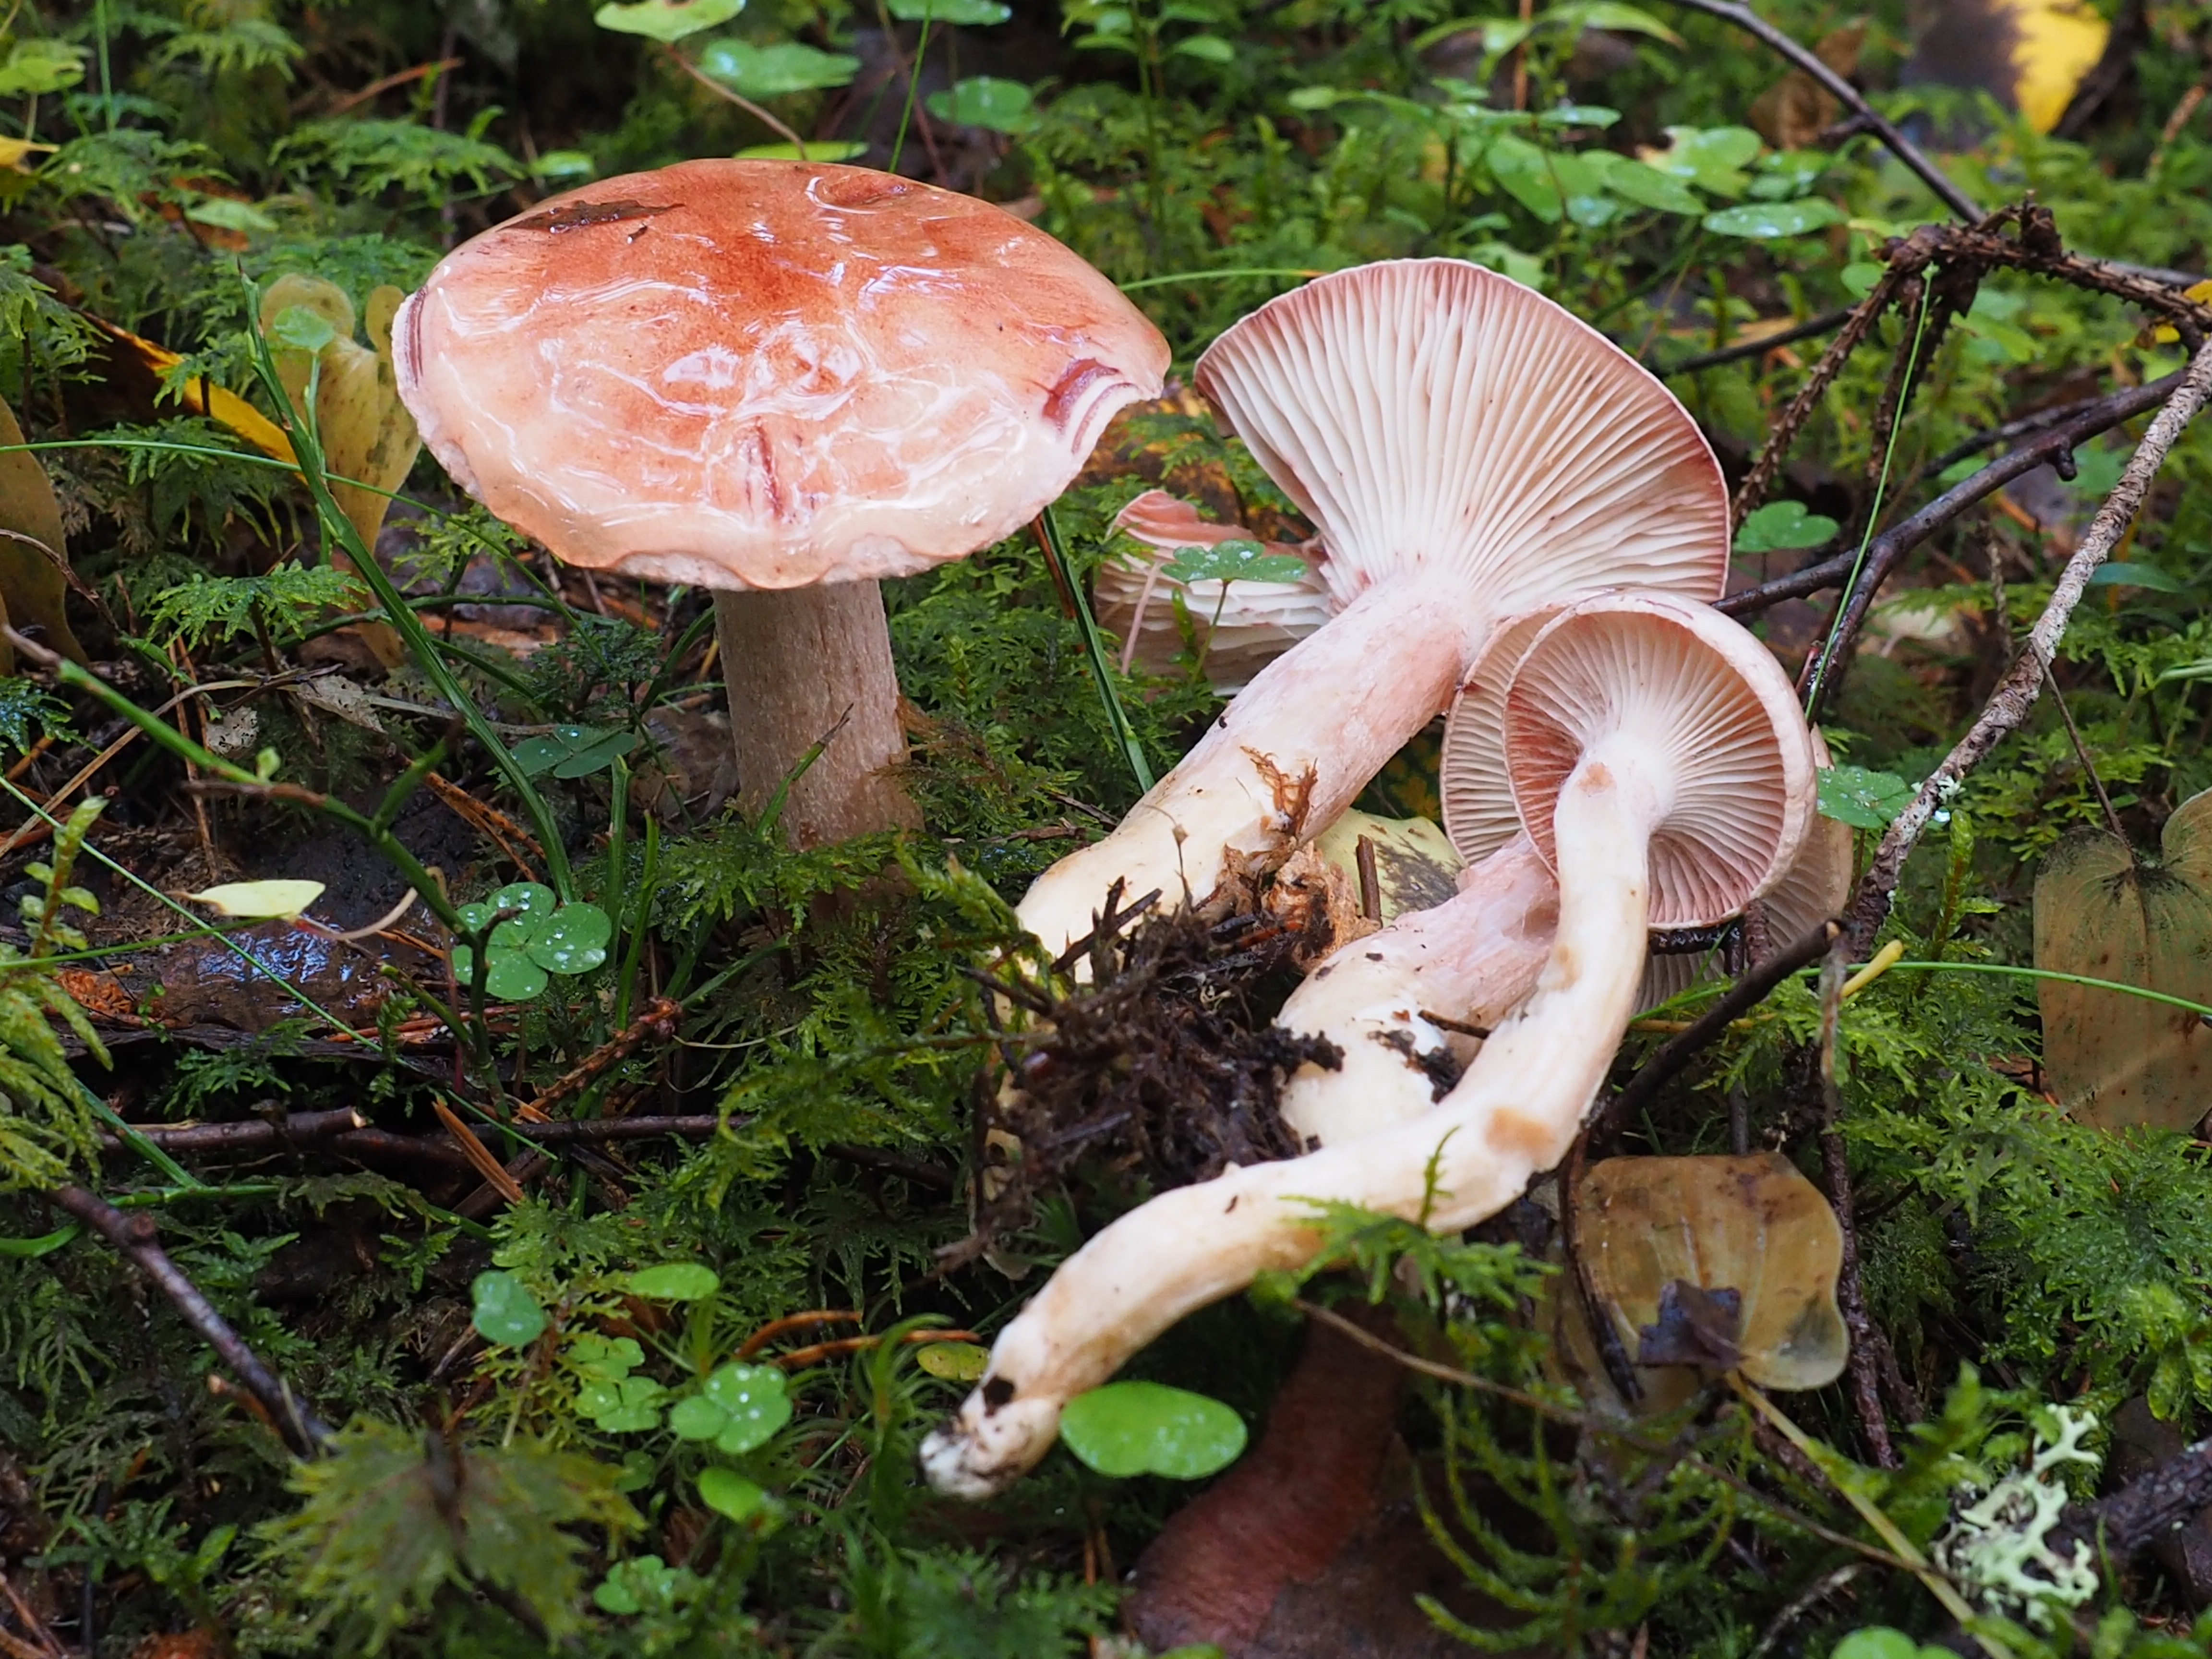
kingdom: Fungi
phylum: Basidiomycota
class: Agaricomycetes
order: Agaricales
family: Hygrophoraceae
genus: Hygrophorus
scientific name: Hygrophorus erubescens
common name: Blotched woodwax
